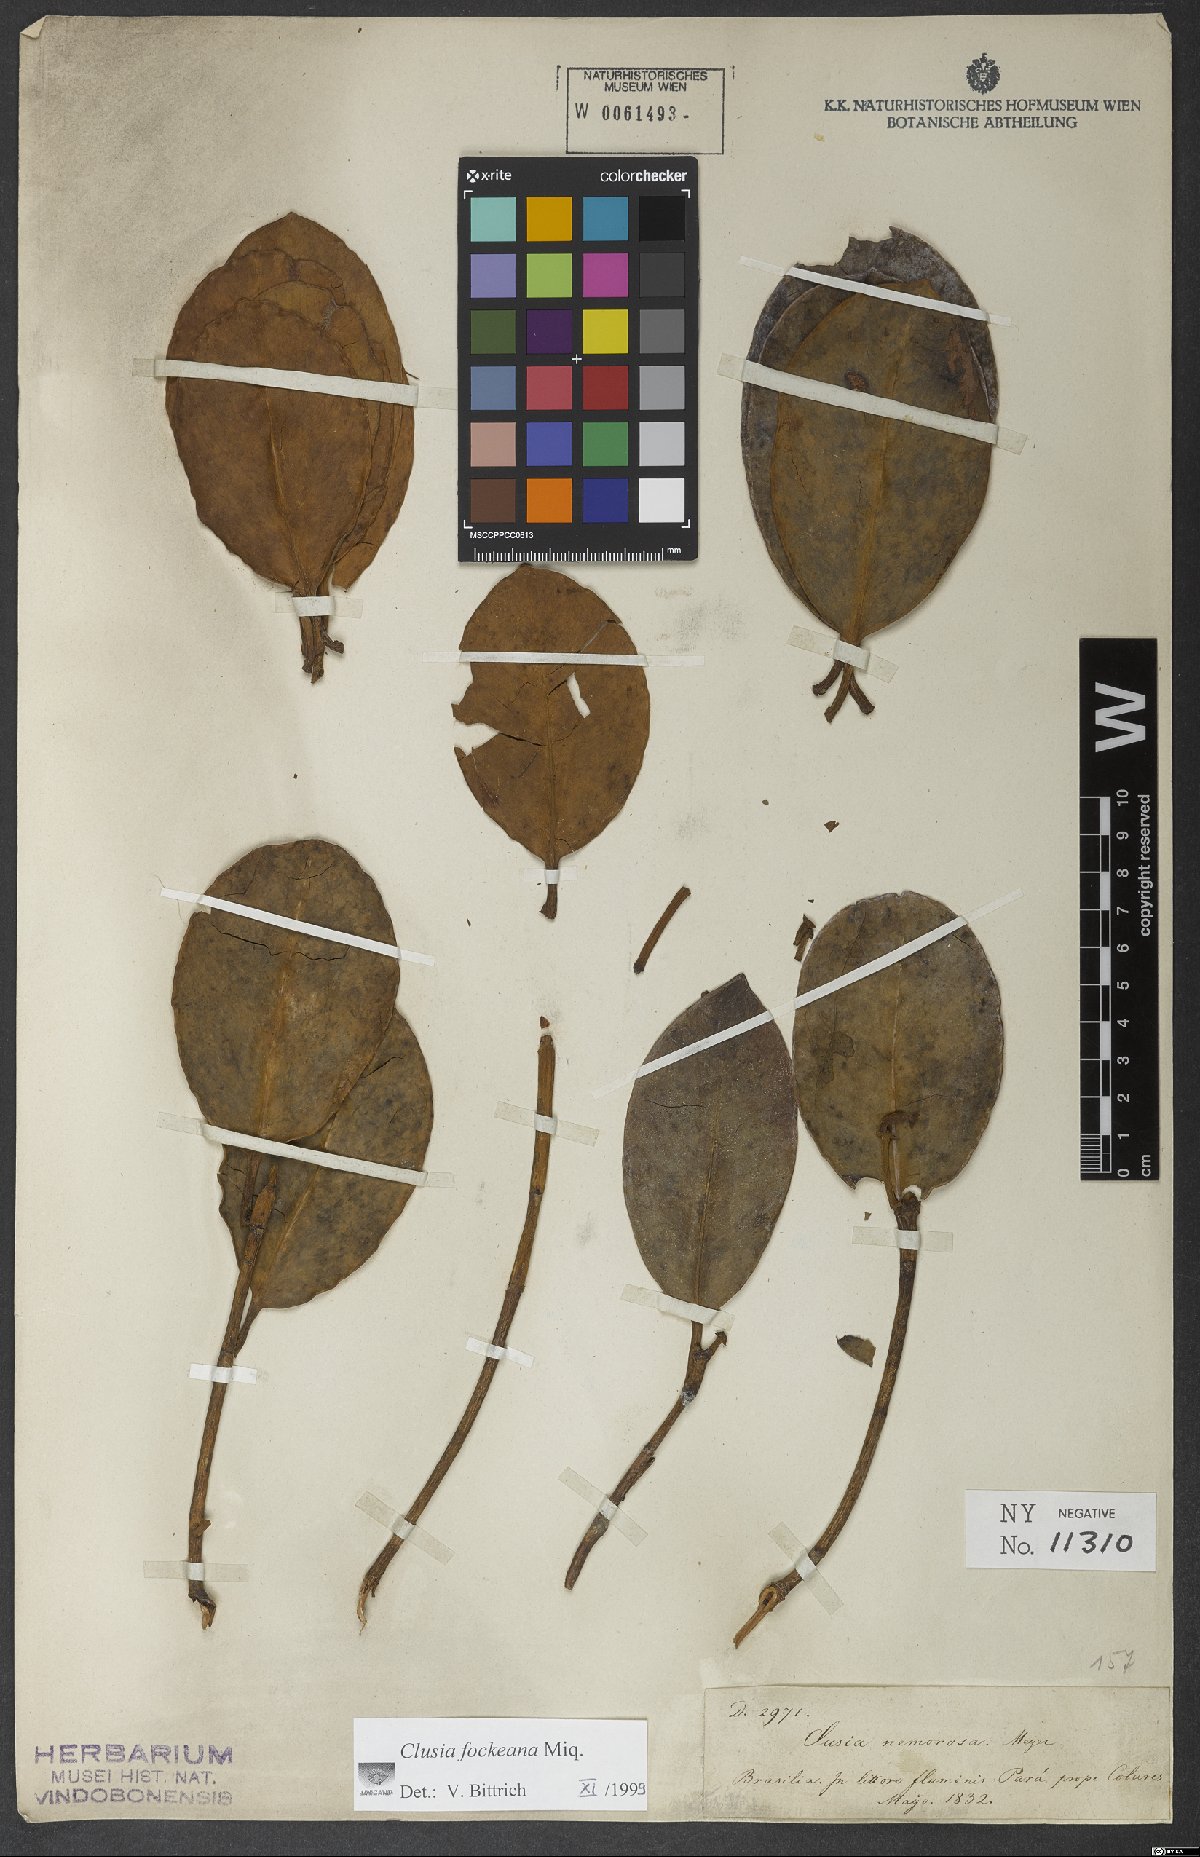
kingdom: Plantae
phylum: Tracheophyta
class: Magnoliopsida
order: Malpighiales
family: Clusiaceae
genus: Clusia
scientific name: Clusia fockeana
